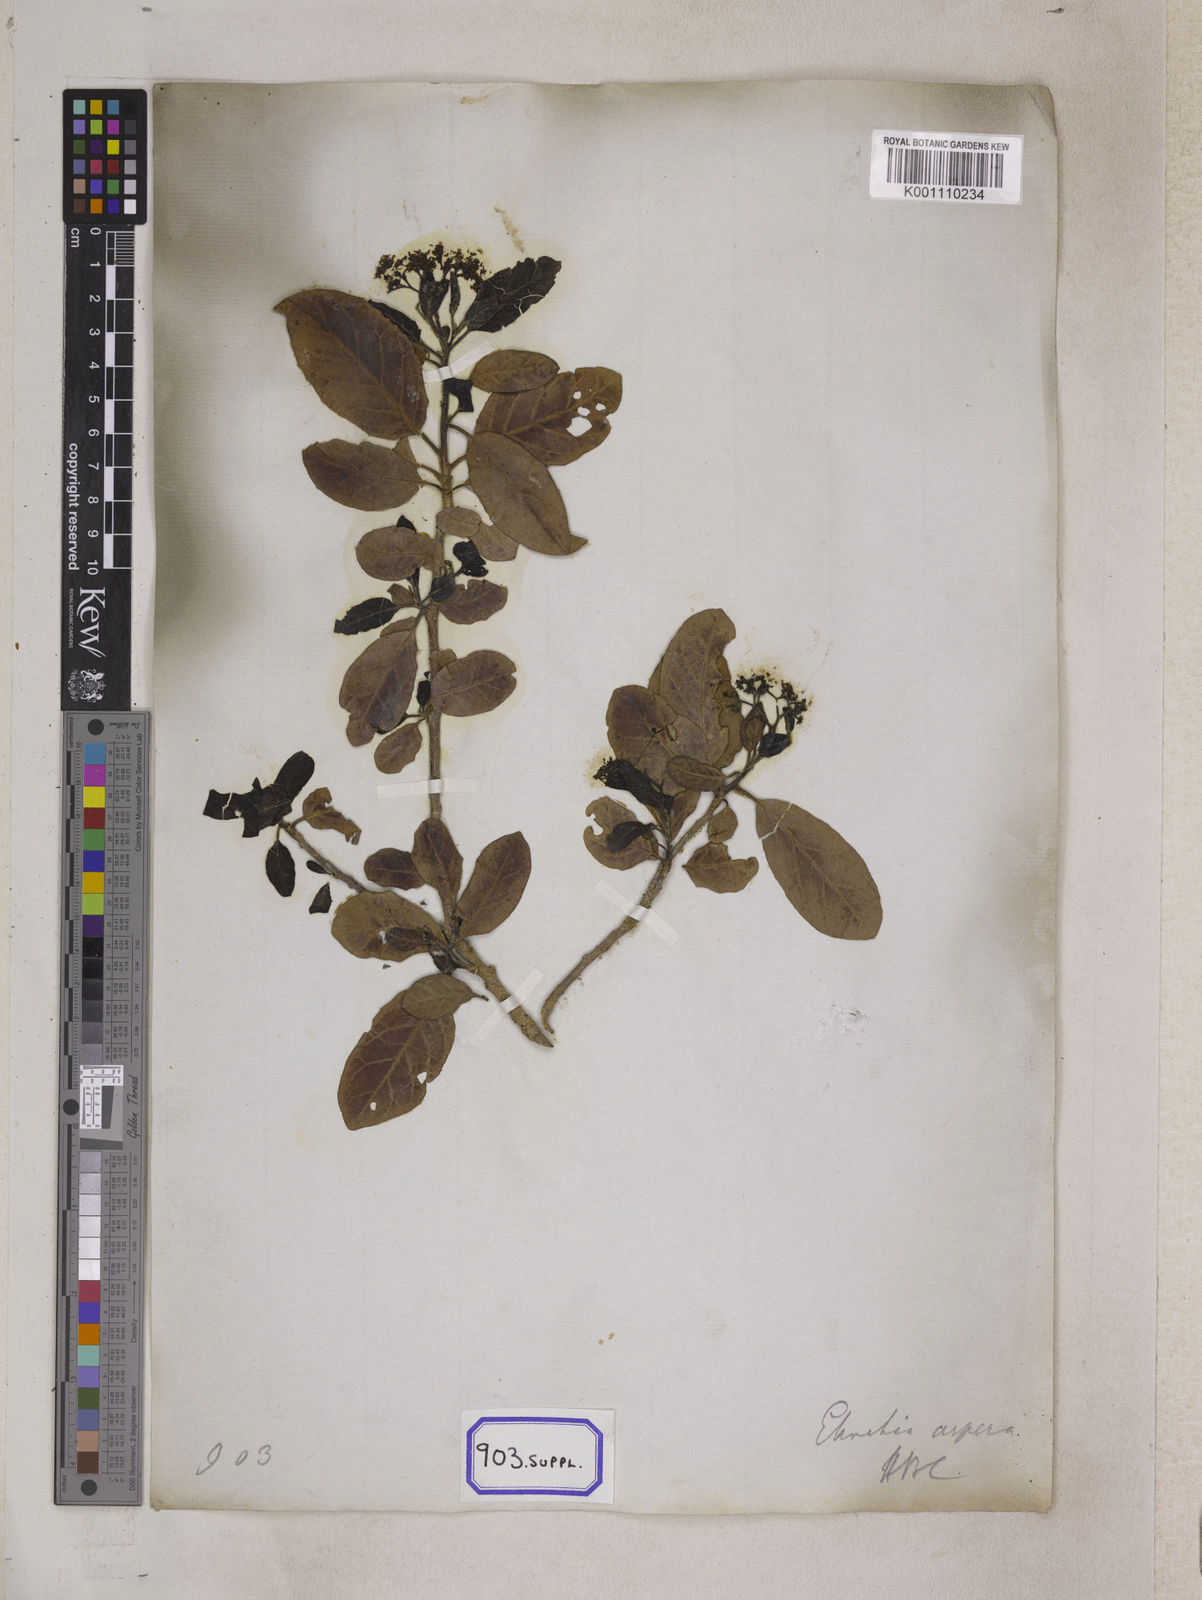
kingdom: Plantae
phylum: Tracheophyta
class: Magnoliopsida
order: Boraginales
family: Ehretiaceae
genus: Ehretia
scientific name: Ehretia
